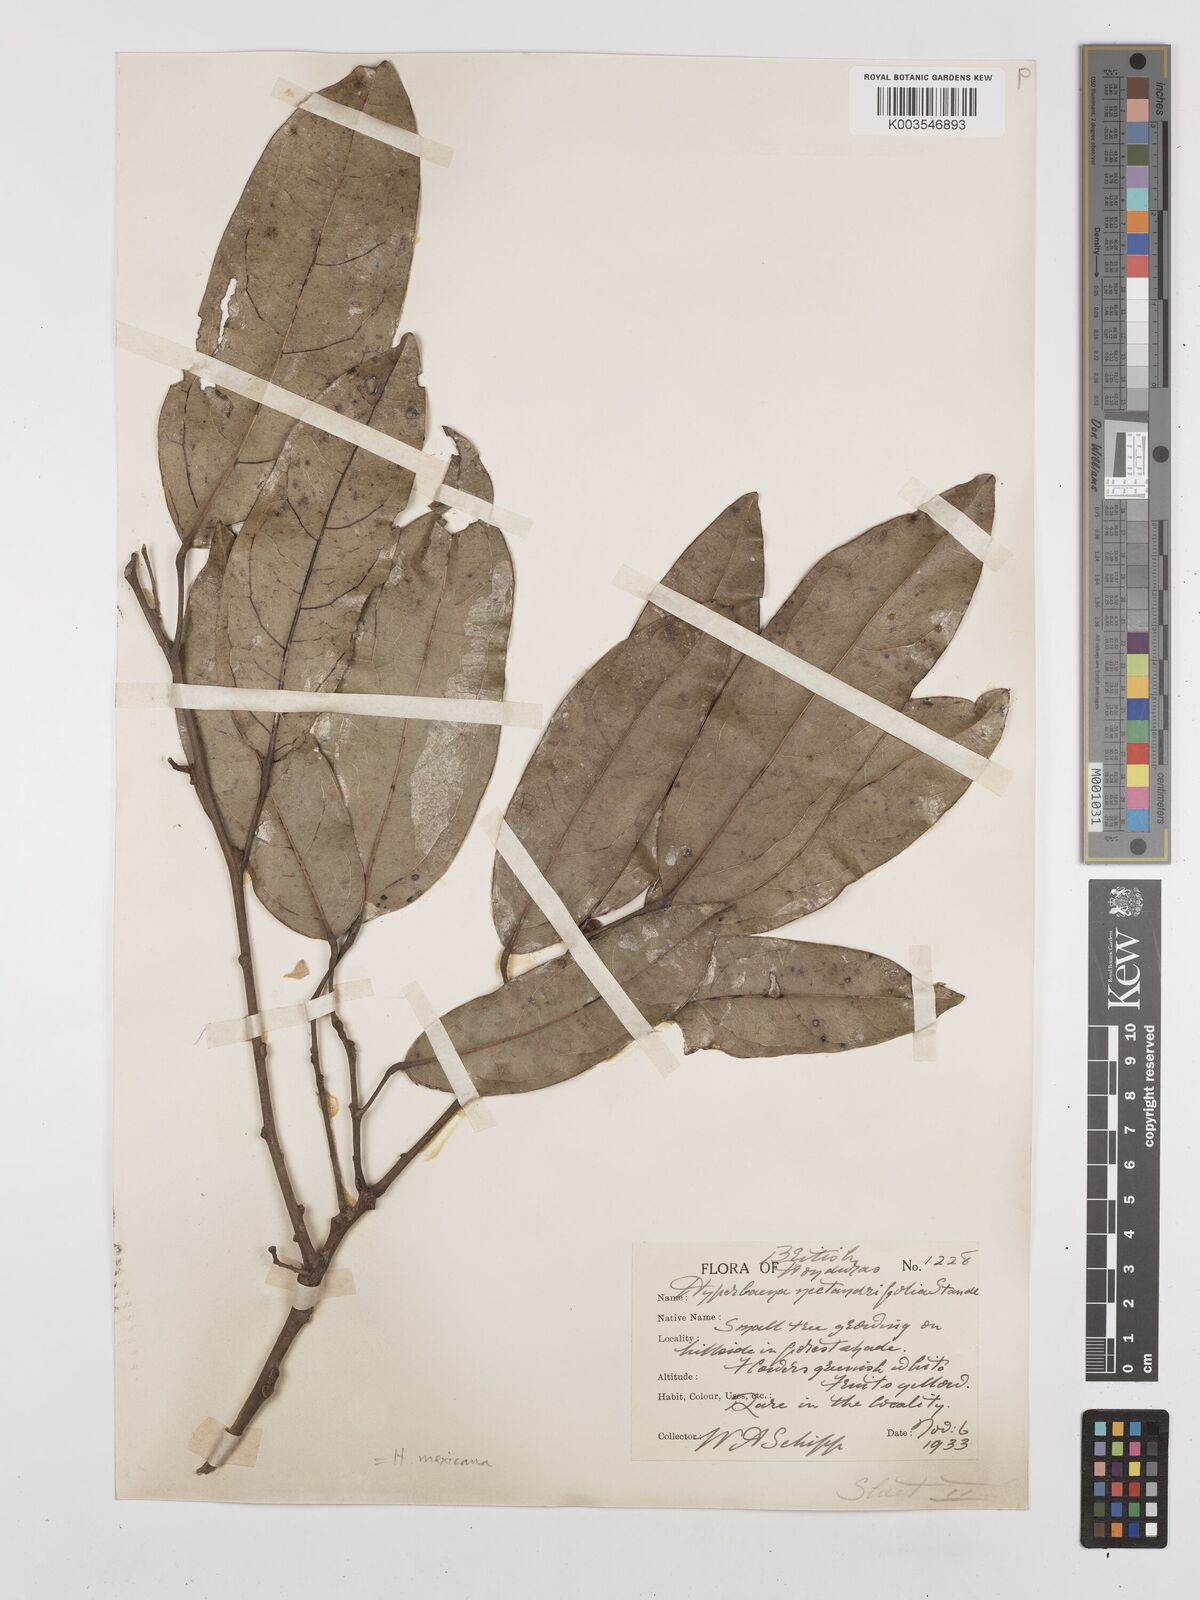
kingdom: Plantae
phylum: Tracheophyta
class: Magnoliopsida
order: Ranunculales
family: Menispermaceae
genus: Hyperbaena
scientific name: Hyperbaena mexicana
